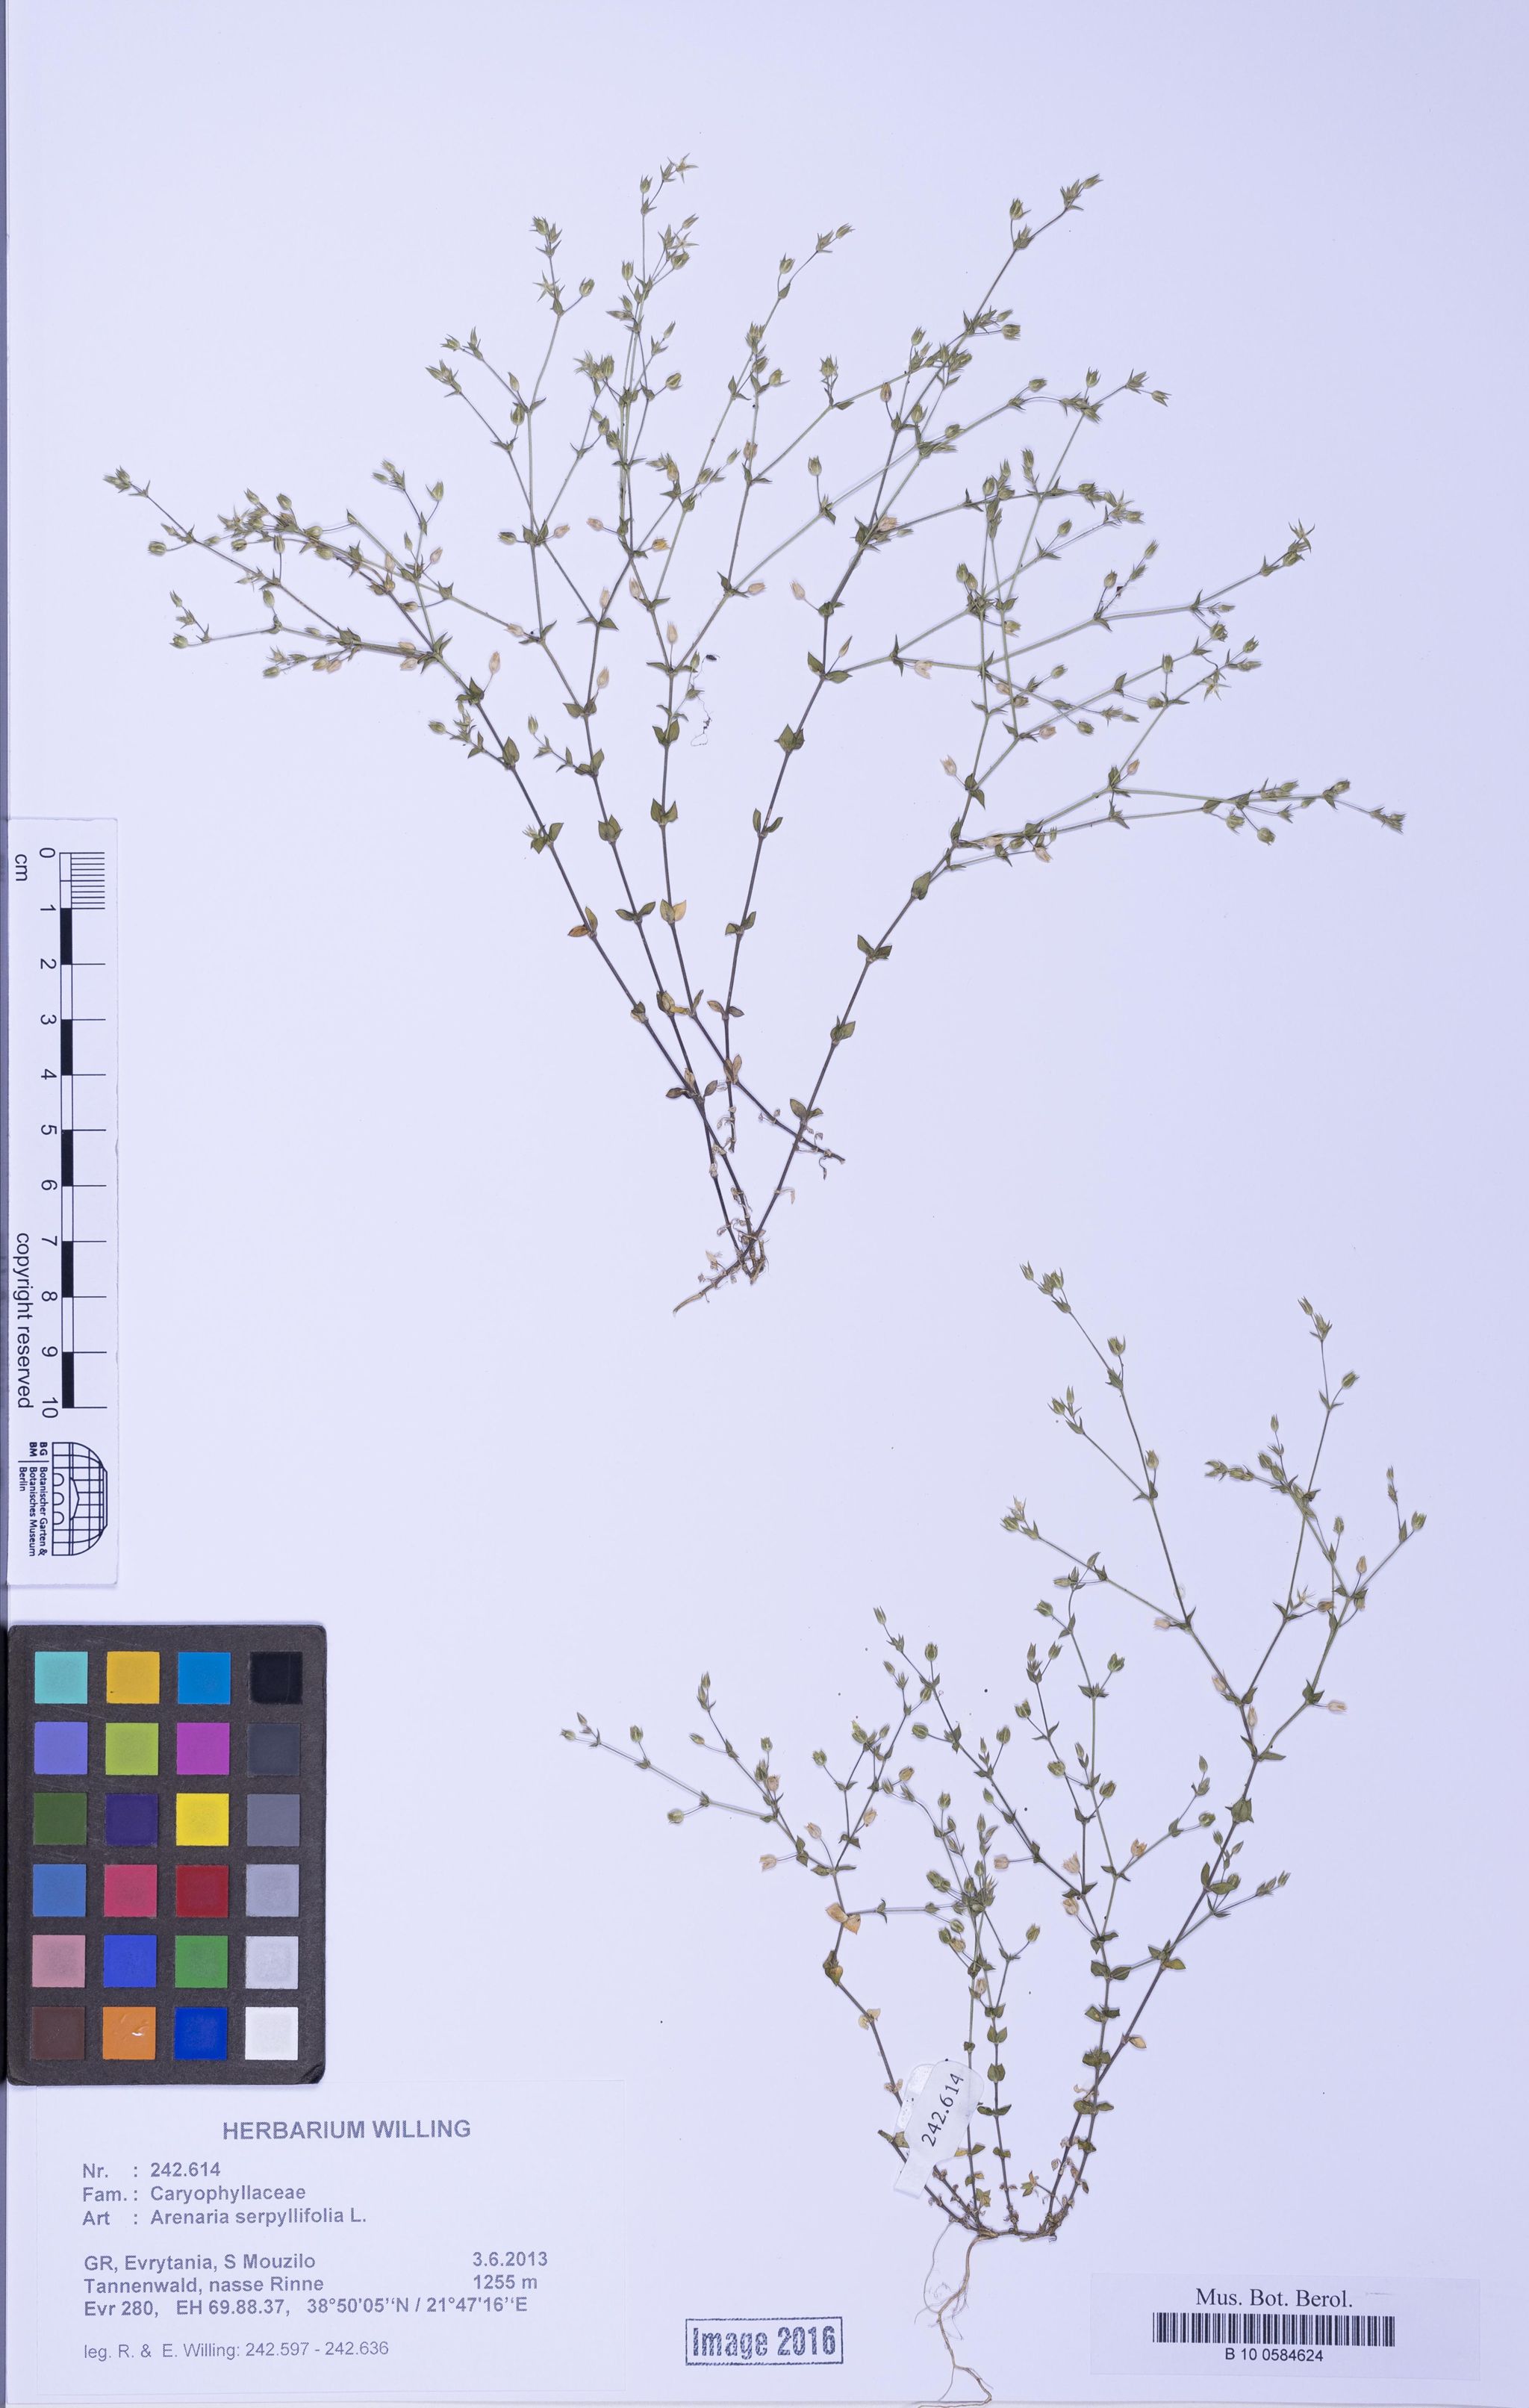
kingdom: Plantae
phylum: Tracheophyta
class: Magnoliopsida
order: Caryophyllales
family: Caryophyllaceae
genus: Arenaria
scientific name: Arenaria serpyllifolia
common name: Thyme-leaved sandwort
